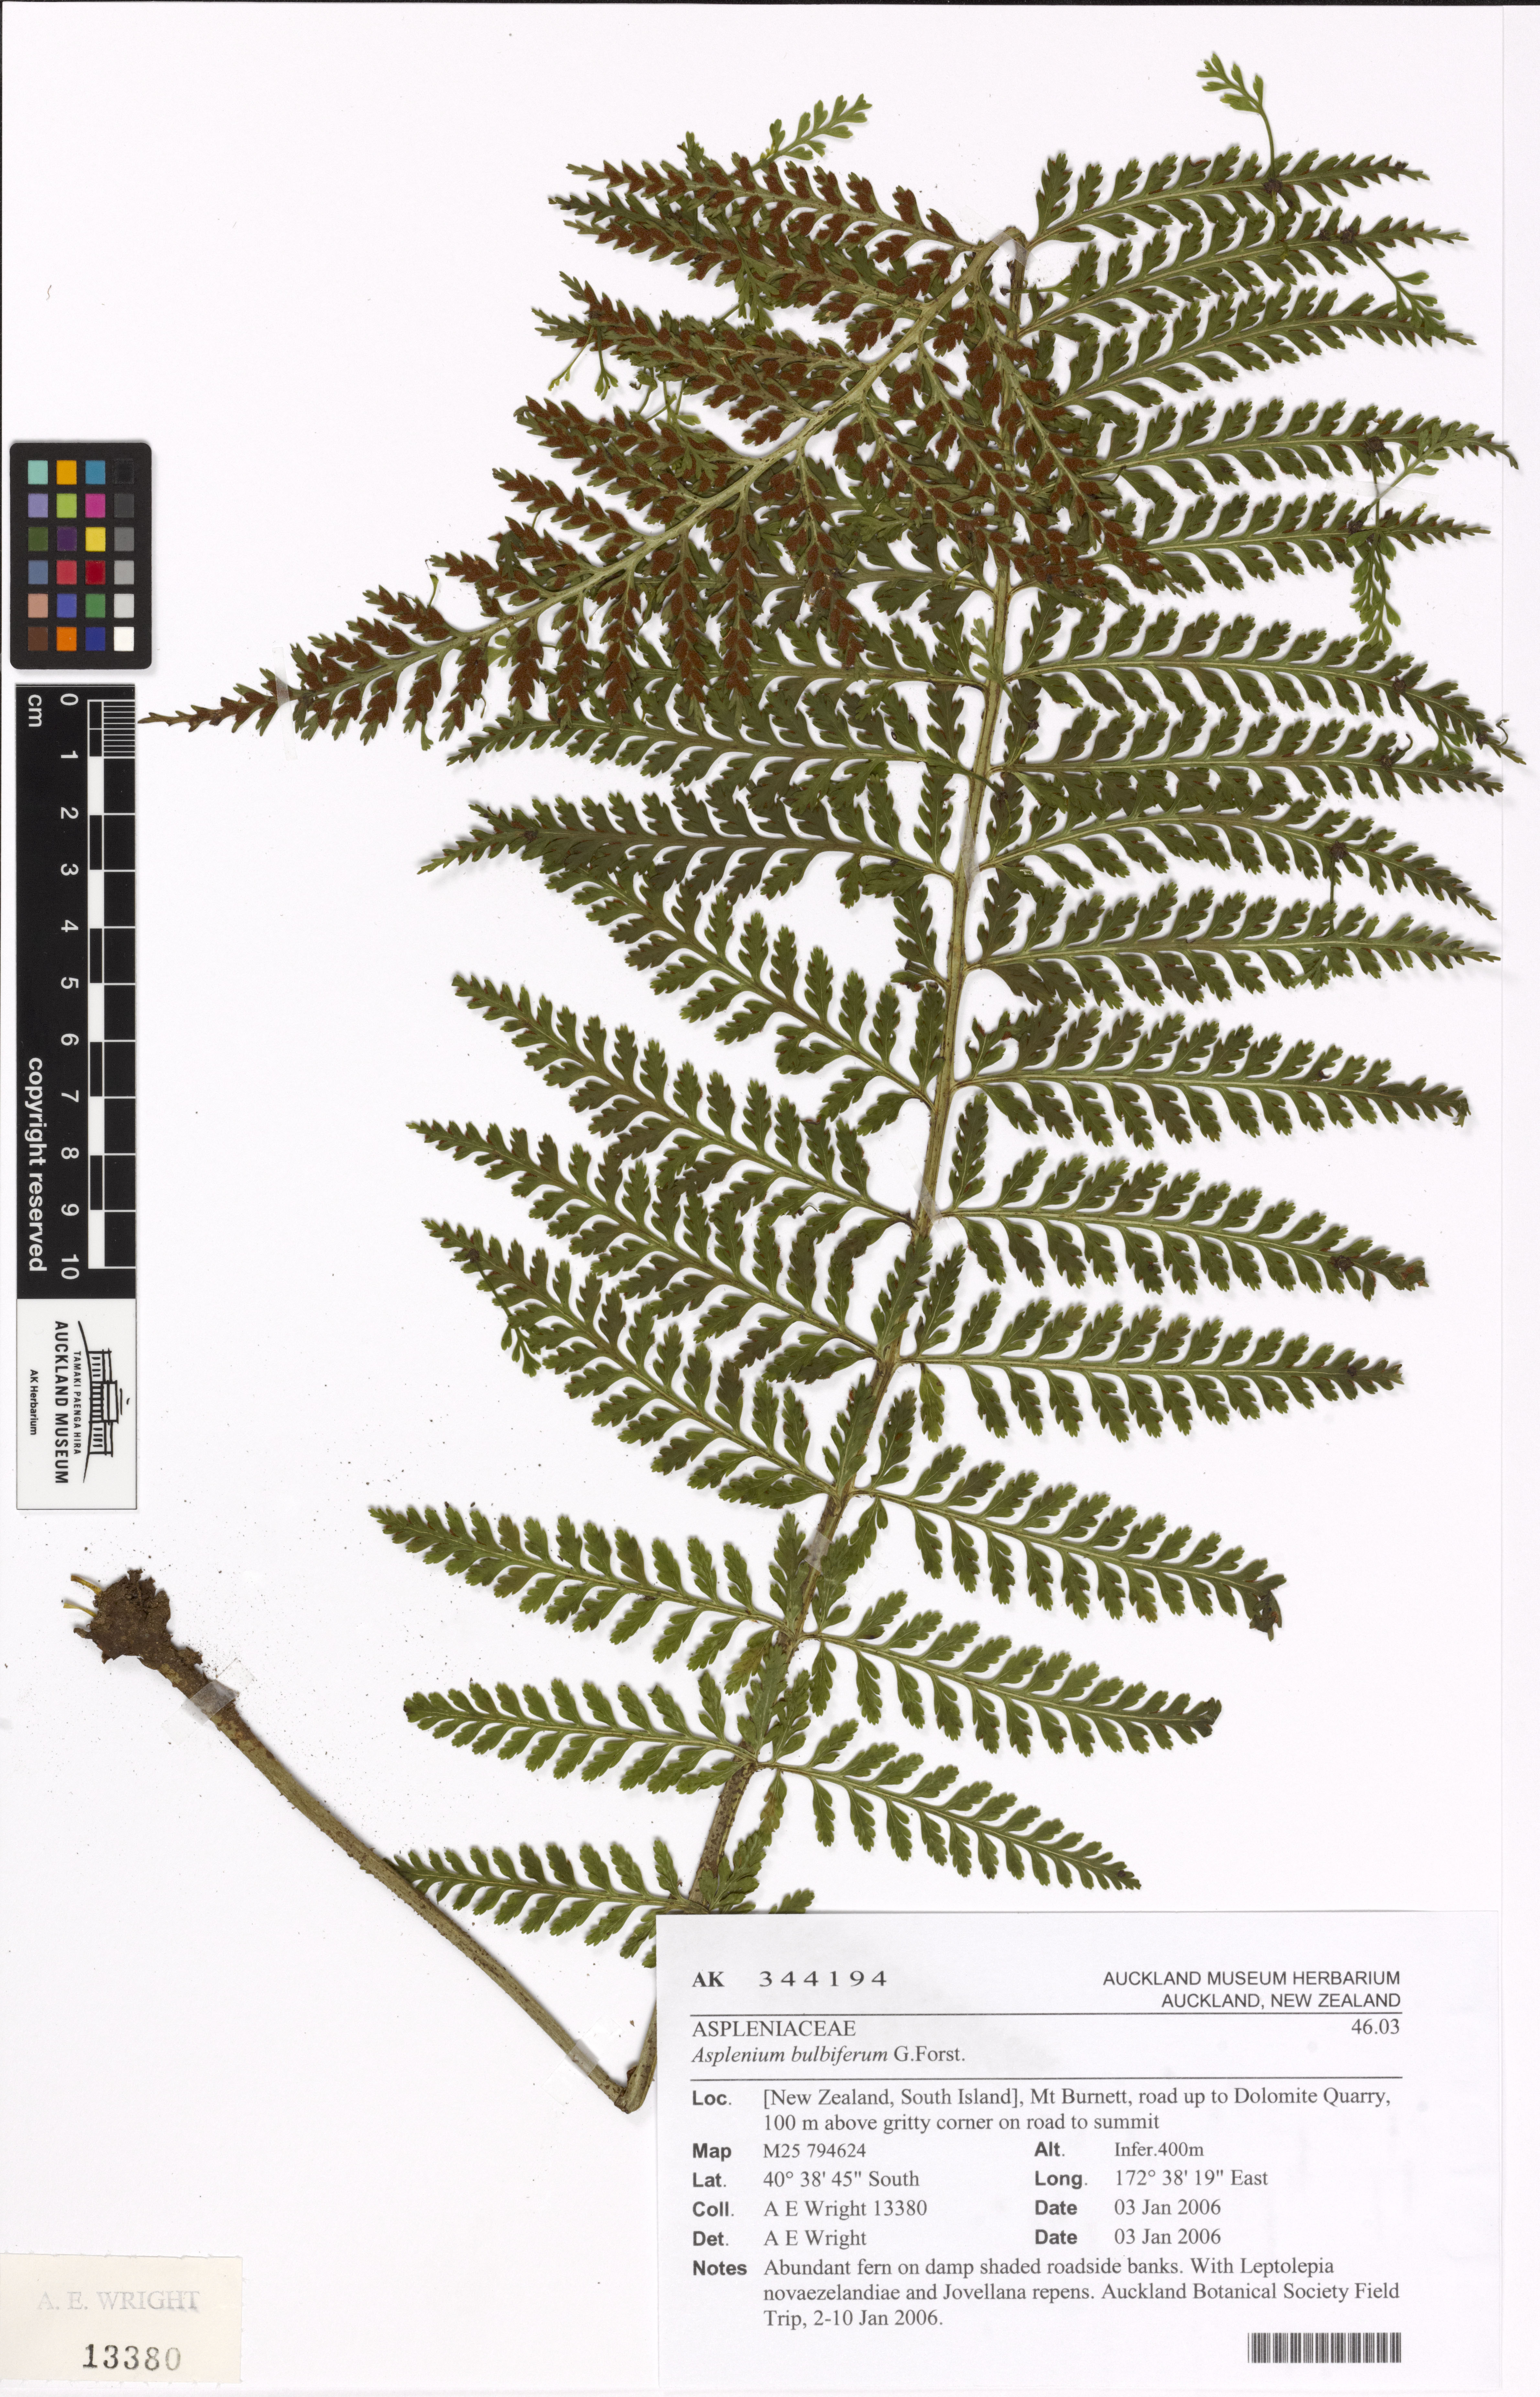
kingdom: Plantae
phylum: Tracheophyta
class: Polypodiopsida
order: Polypodiales
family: Aspleniaceae
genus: Asplenium
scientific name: Asplenium bulbiferum
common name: Mother fern
